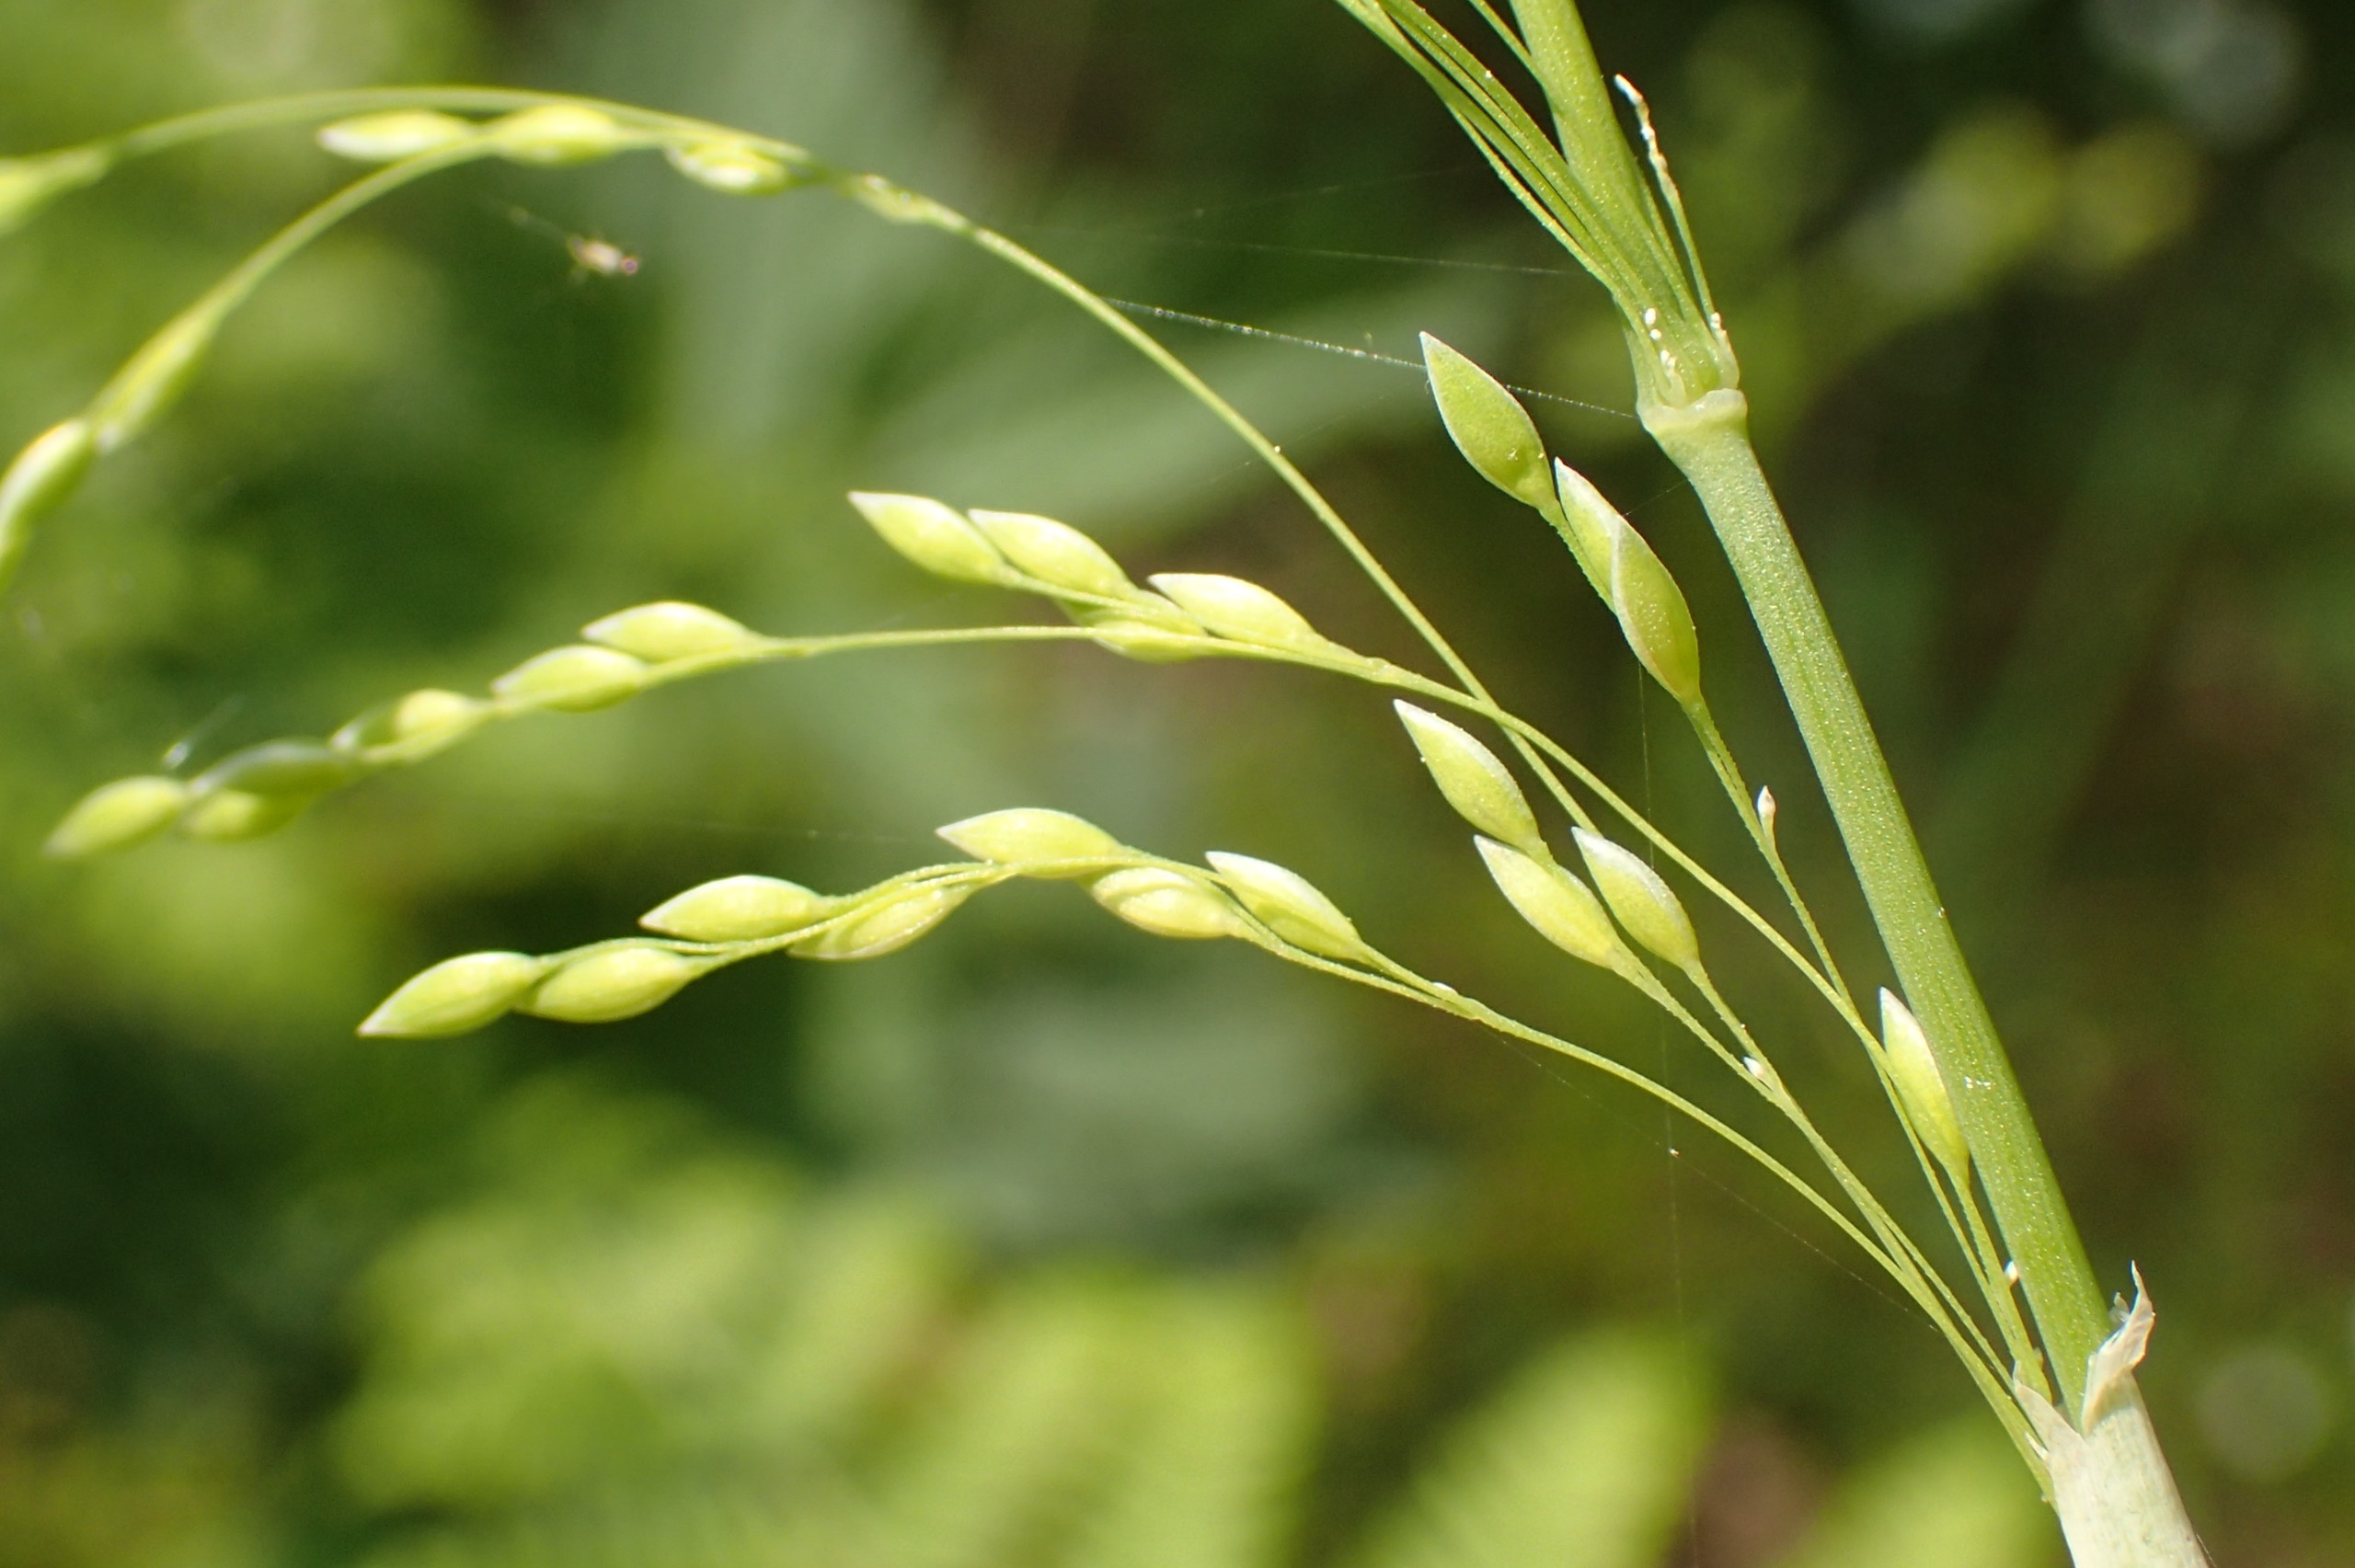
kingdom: Plantae
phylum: Tracheophyta
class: Liliopsida
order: Poales
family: Poaceae
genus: Milium
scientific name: Milium effusum
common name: Miliegræs
